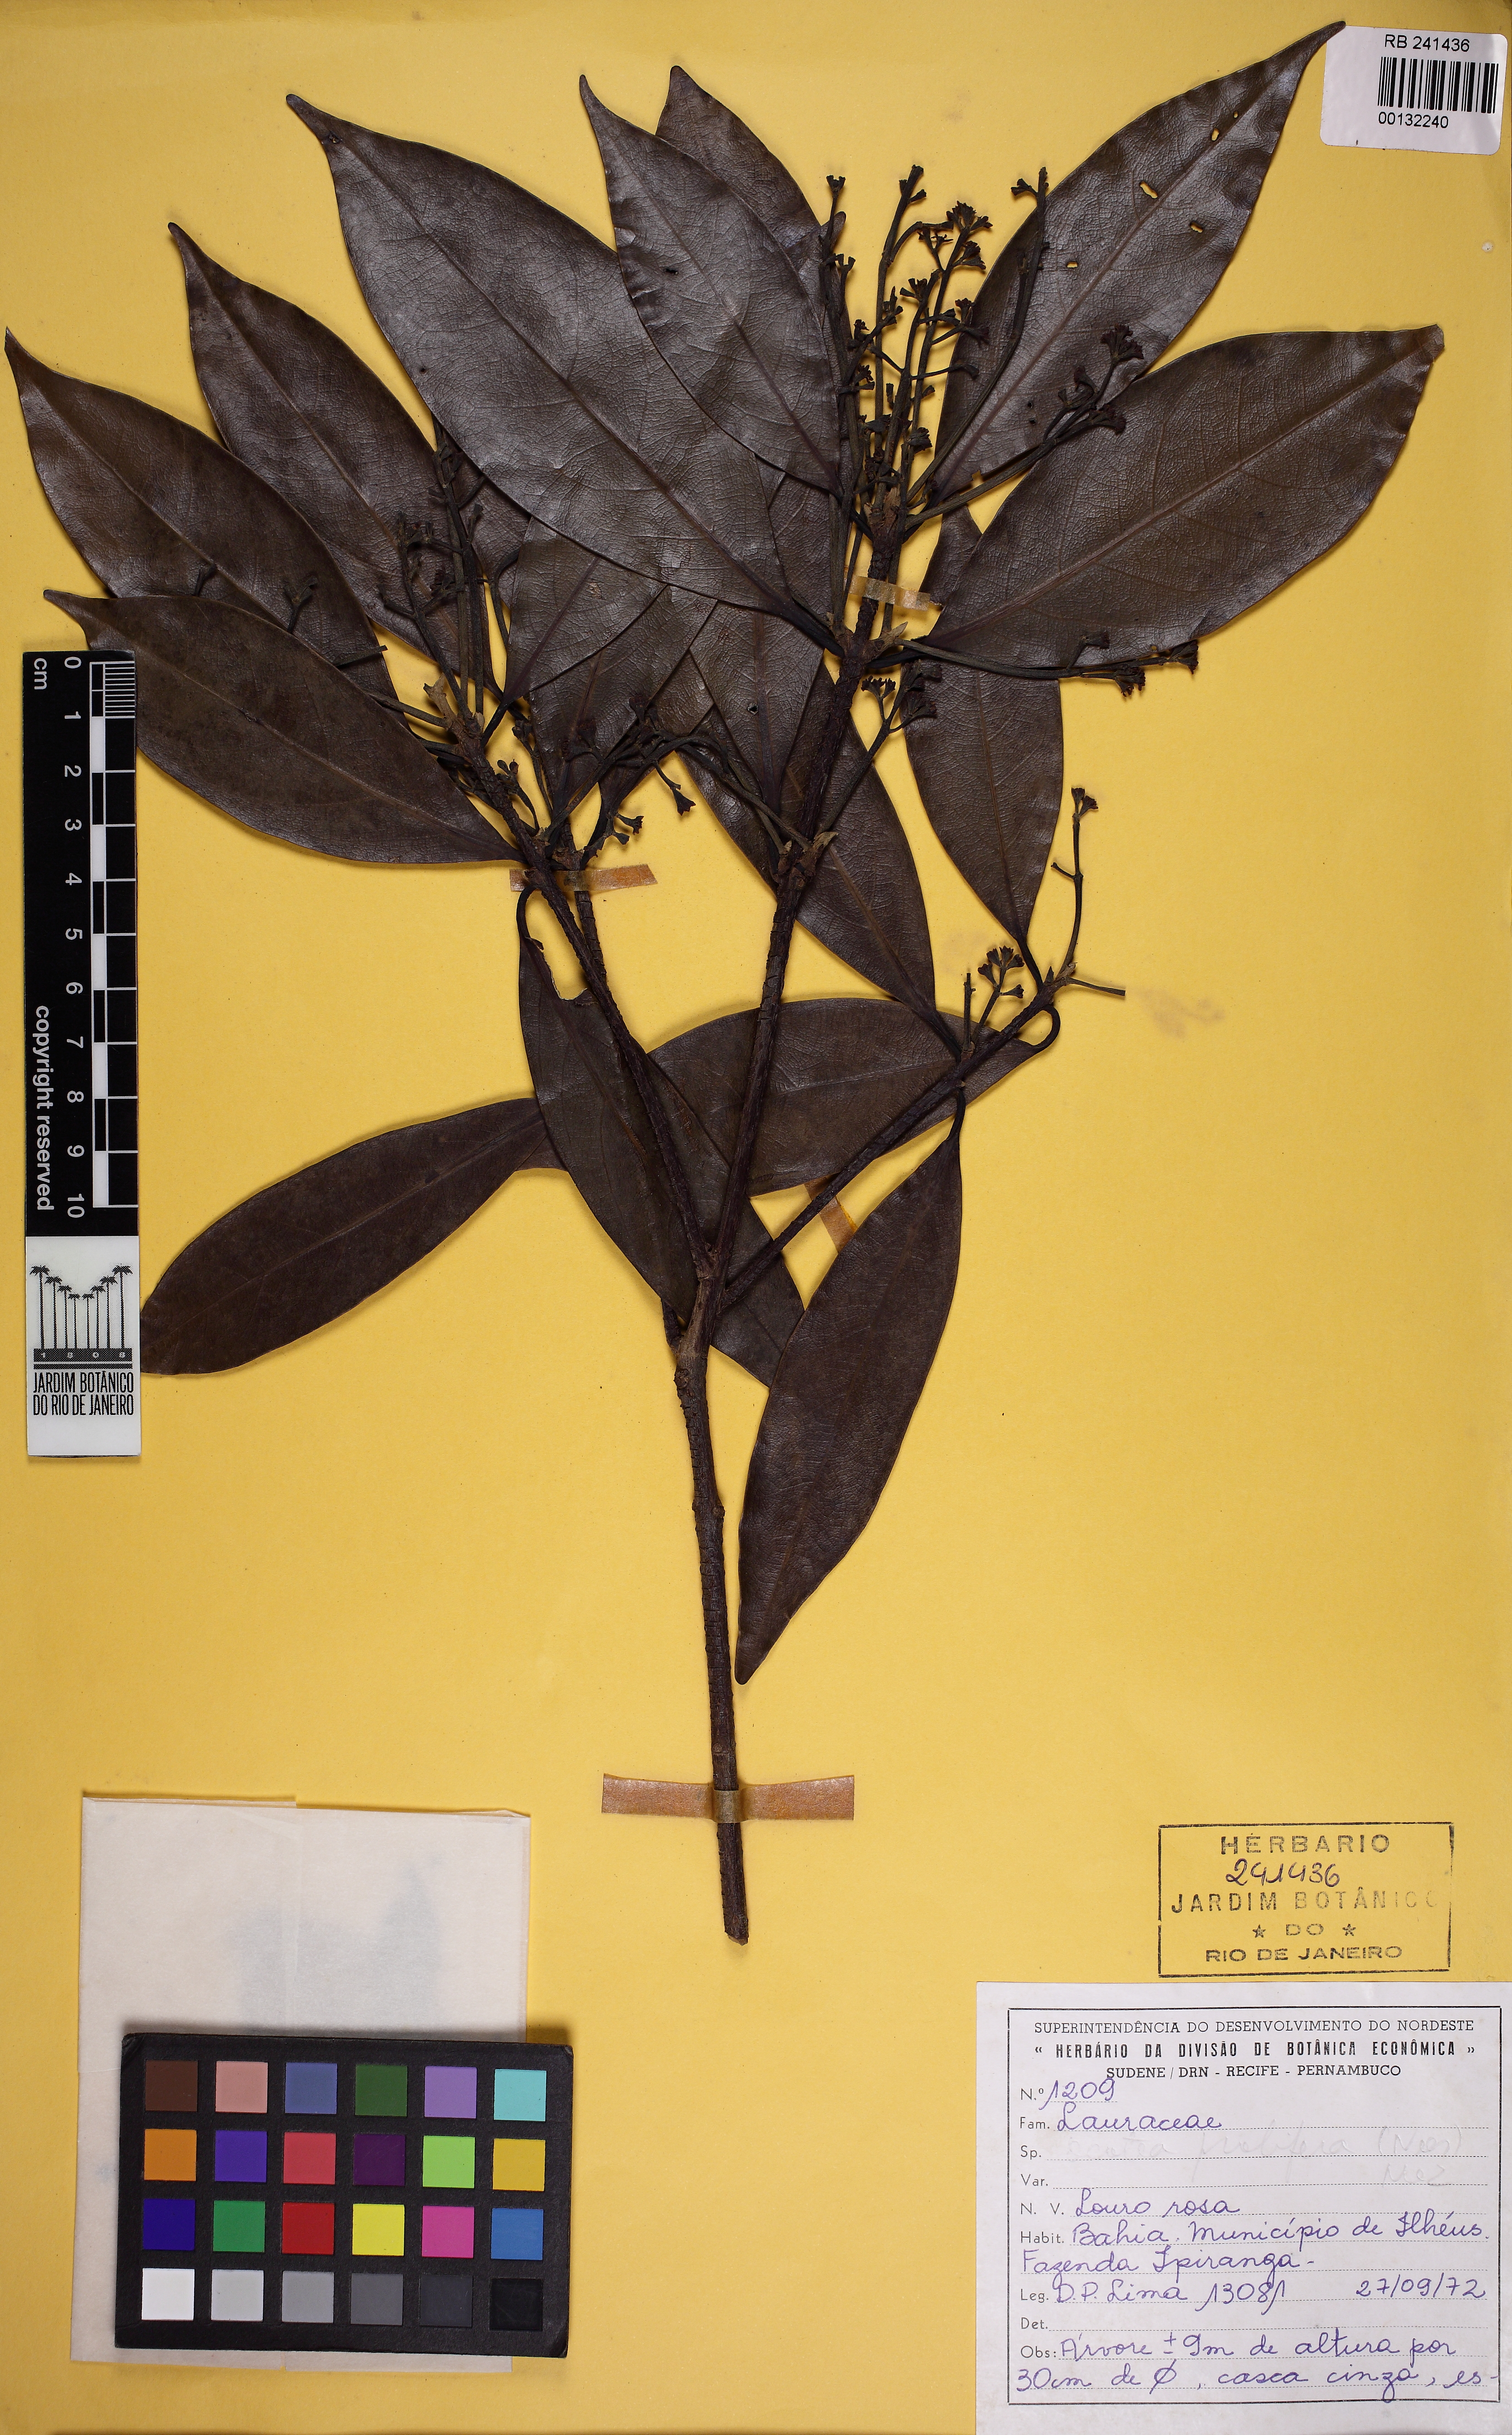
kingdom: Plantae
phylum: Tracheophyta
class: Magnoliopsida
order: Laurales
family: Lauraceae
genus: Mespilodaphne
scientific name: Mespilodaphne prolifera
